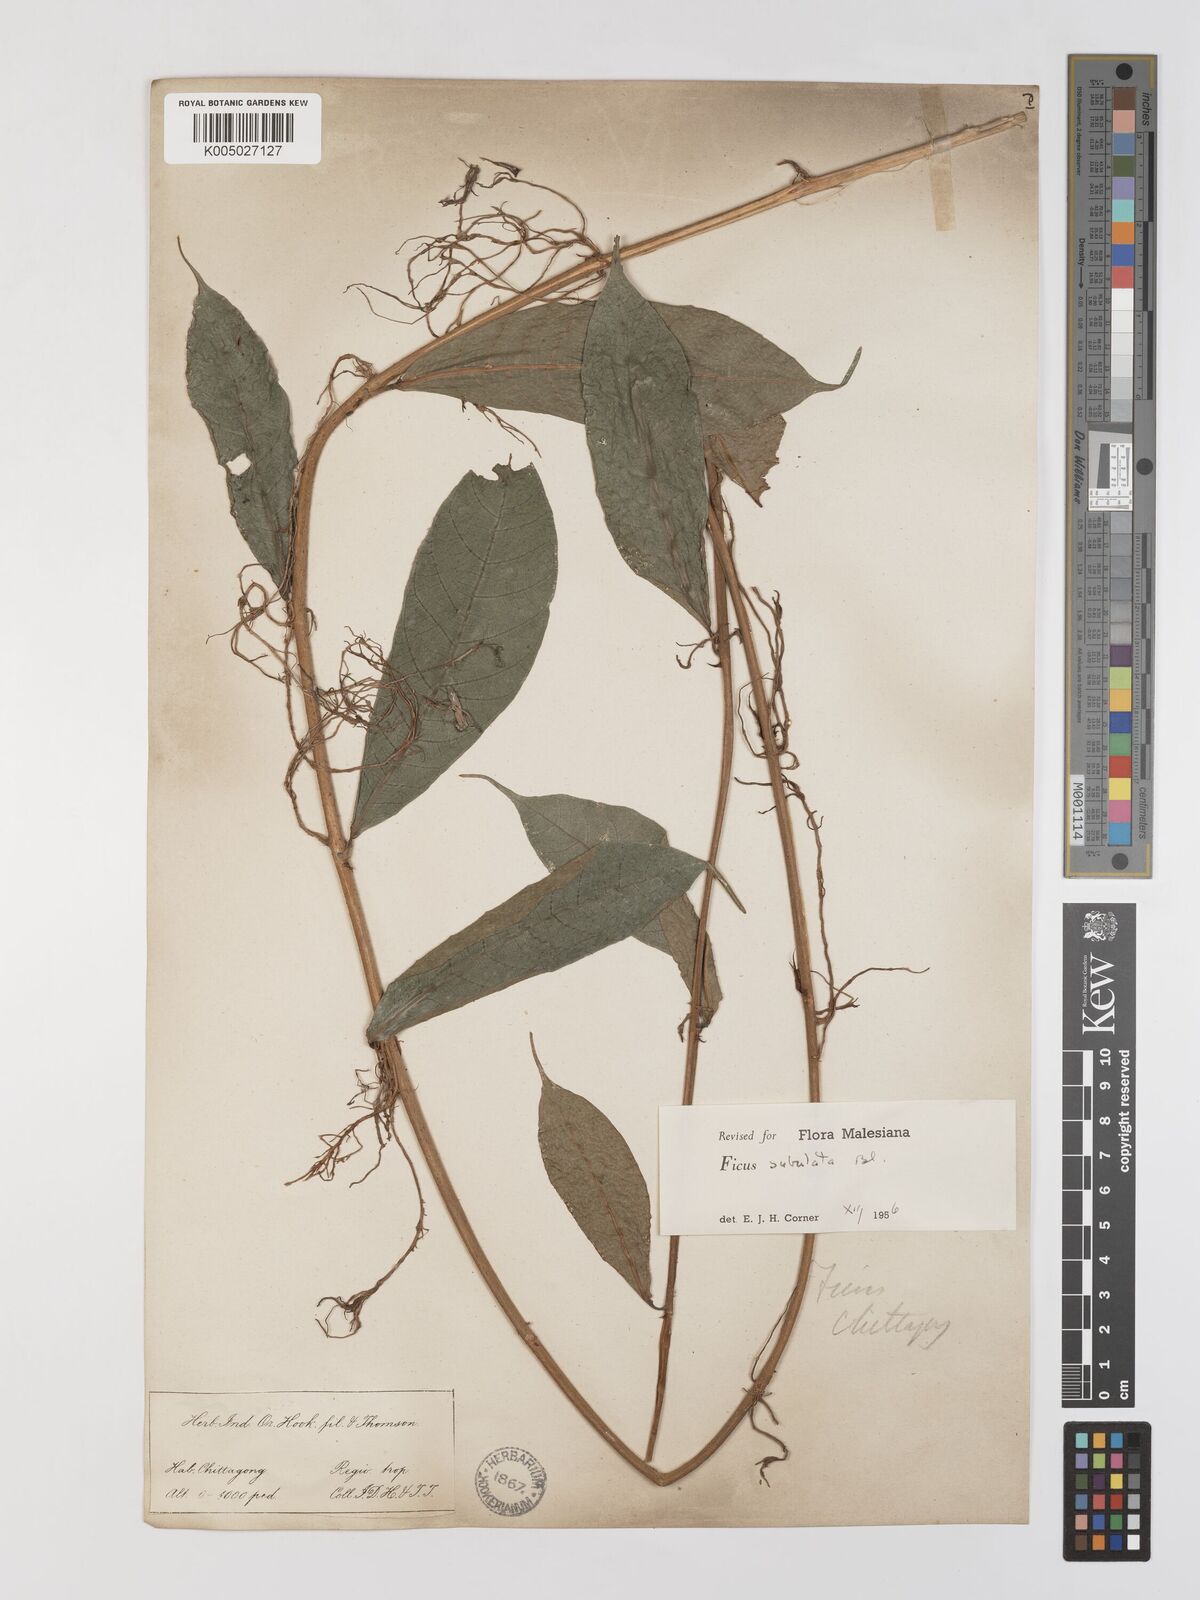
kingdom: Plantae
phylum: Tracheophyta
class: Magnoliopsida
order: Rosales
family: Moraceae
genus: Ficus
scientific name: Ficus subulata
